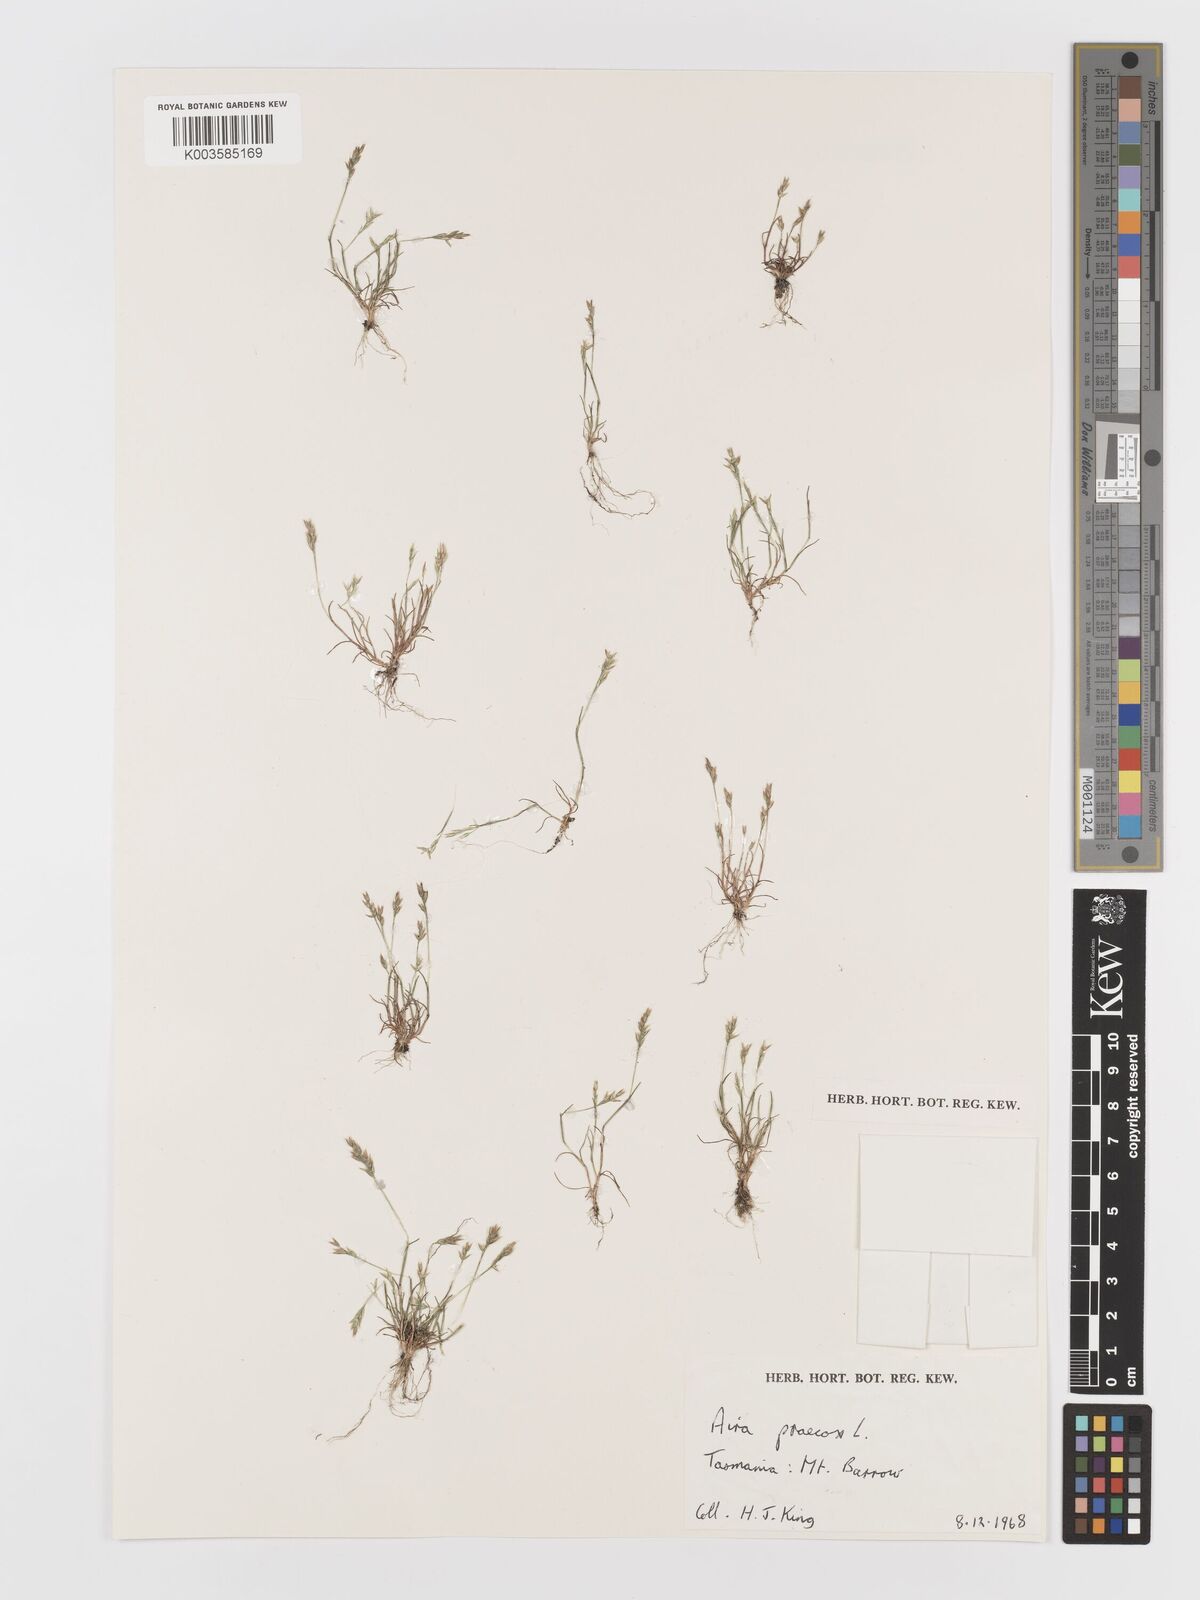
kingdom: Plantae
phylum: Tracheophyta
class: Liliopsida
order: Poales
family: Poaceae
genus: Aira
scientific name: Aira praecox
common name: Early hair-grass
